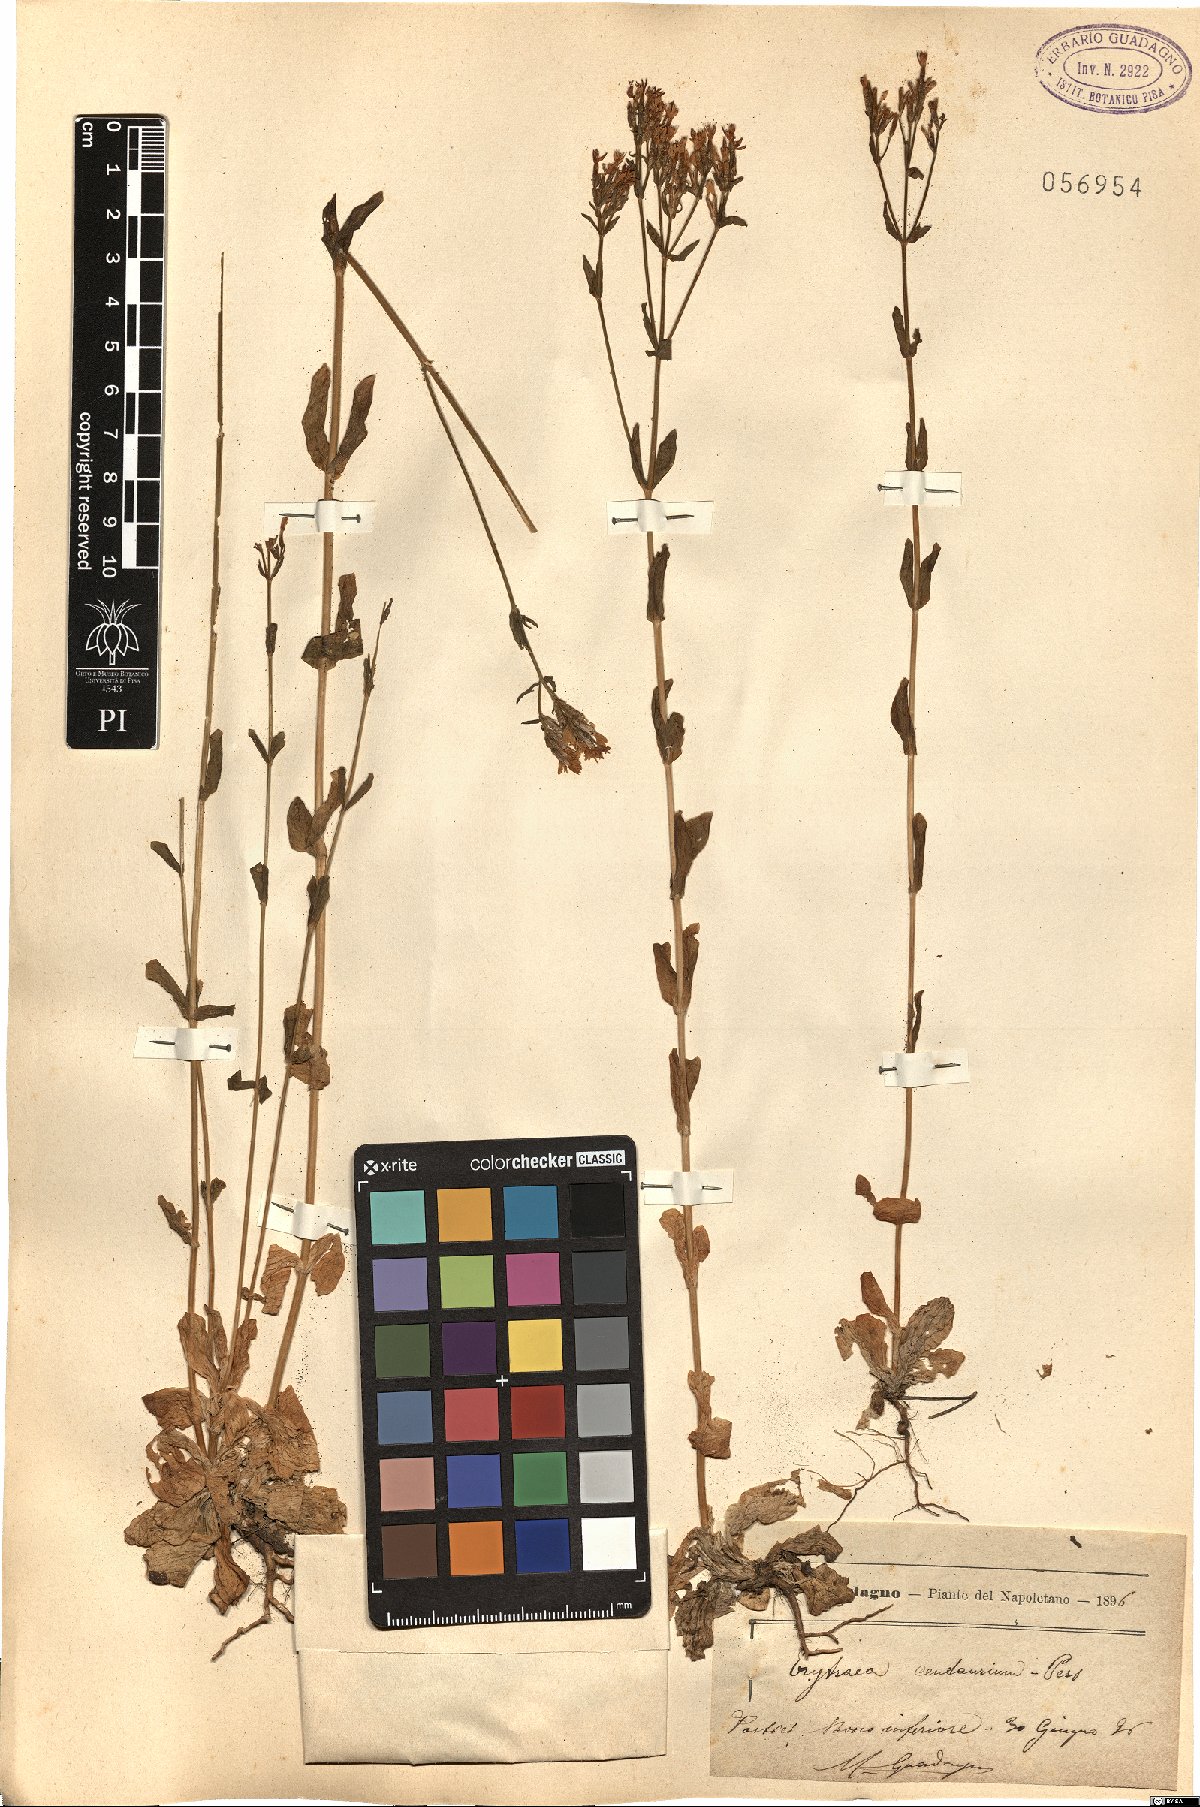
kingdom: Plantae
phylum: Tracheophyta
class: Magnoliopsida
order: Gentianales
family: Gentianaceae
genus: Centaurium
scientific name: Centaurium erythraea
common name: Common centaury
